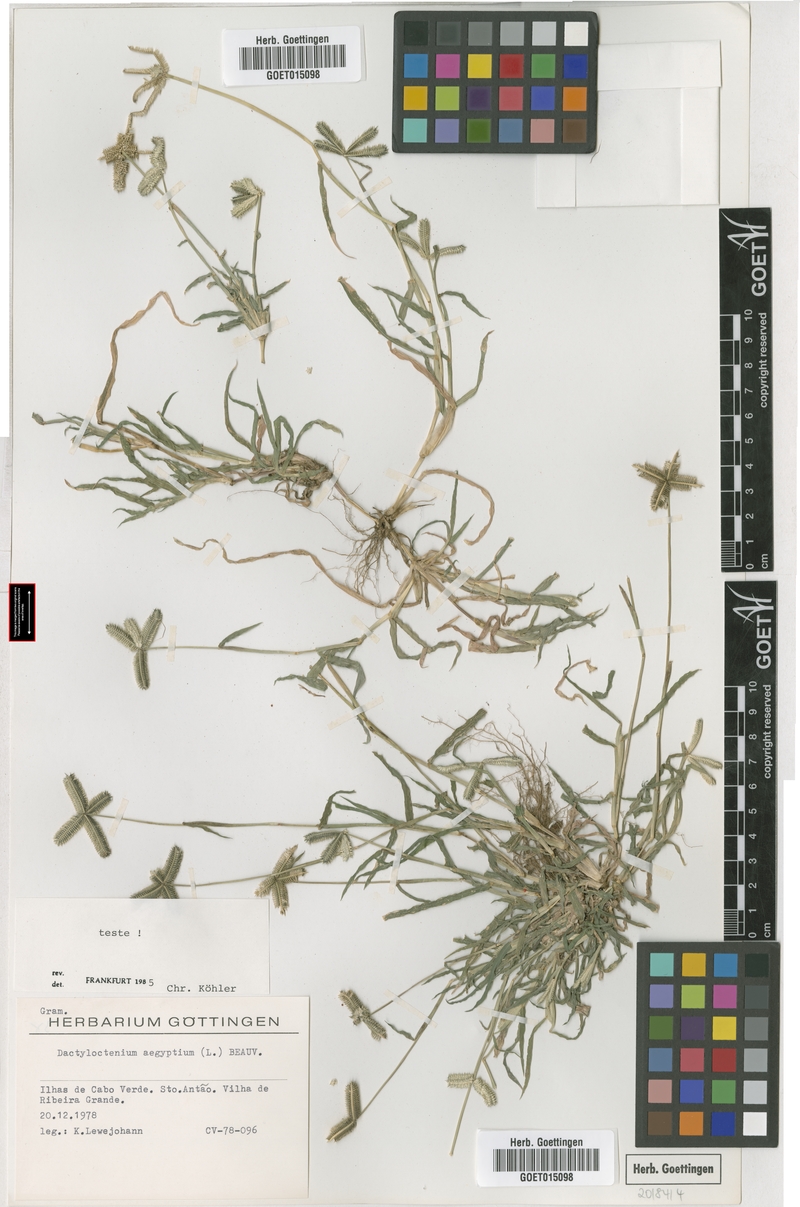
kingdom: Plantae
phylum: Tracheophyta
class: Liliopsida
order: Poales
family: Poaceae
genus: Dactyloctenium
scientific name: Dactyloctenium aegyptium
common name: Egyptian grass
